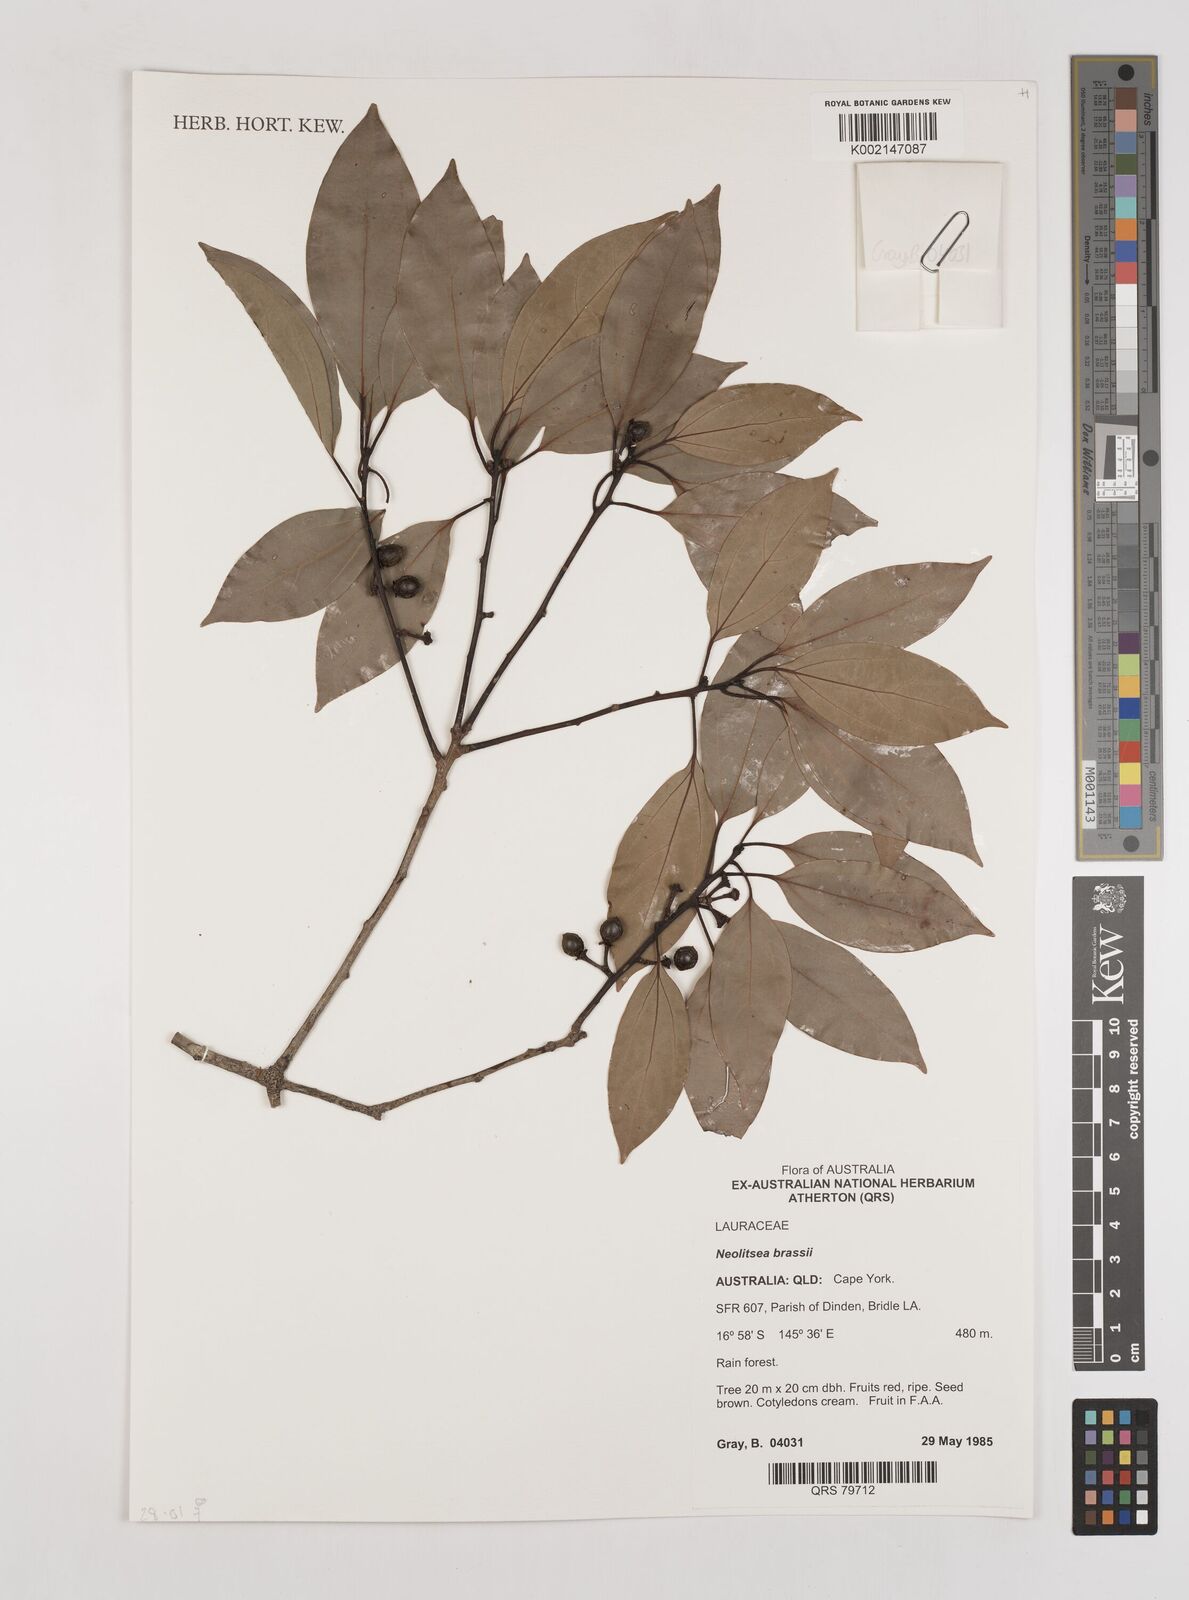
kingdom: Plantae
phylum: Tracheophyta
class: Magnoliopsida
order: Laurales
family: Lauraceae
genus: Litsea
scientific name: Litsea glutinosa
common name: Indian-laurel
